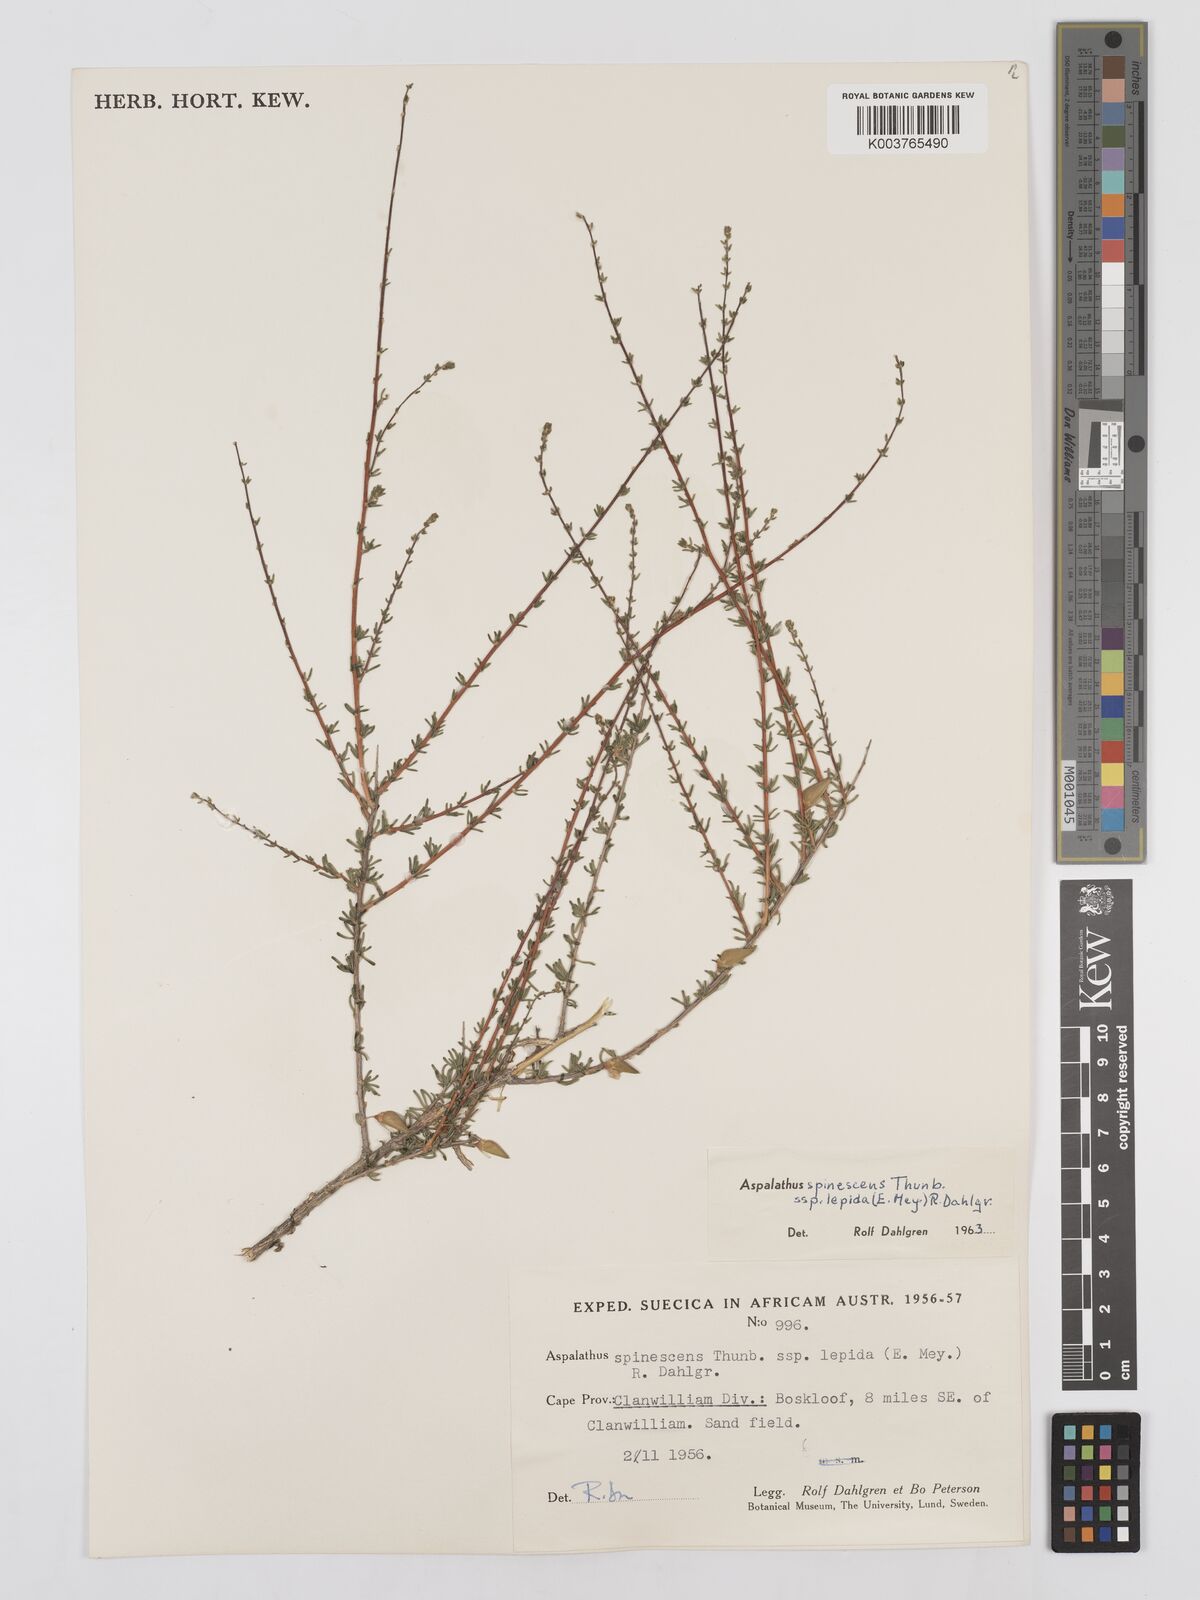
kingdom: Plantae
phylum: Tracheophyta
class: Magnoliopsida
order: Fabales
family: Fabaceae
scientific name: Fabaceae
